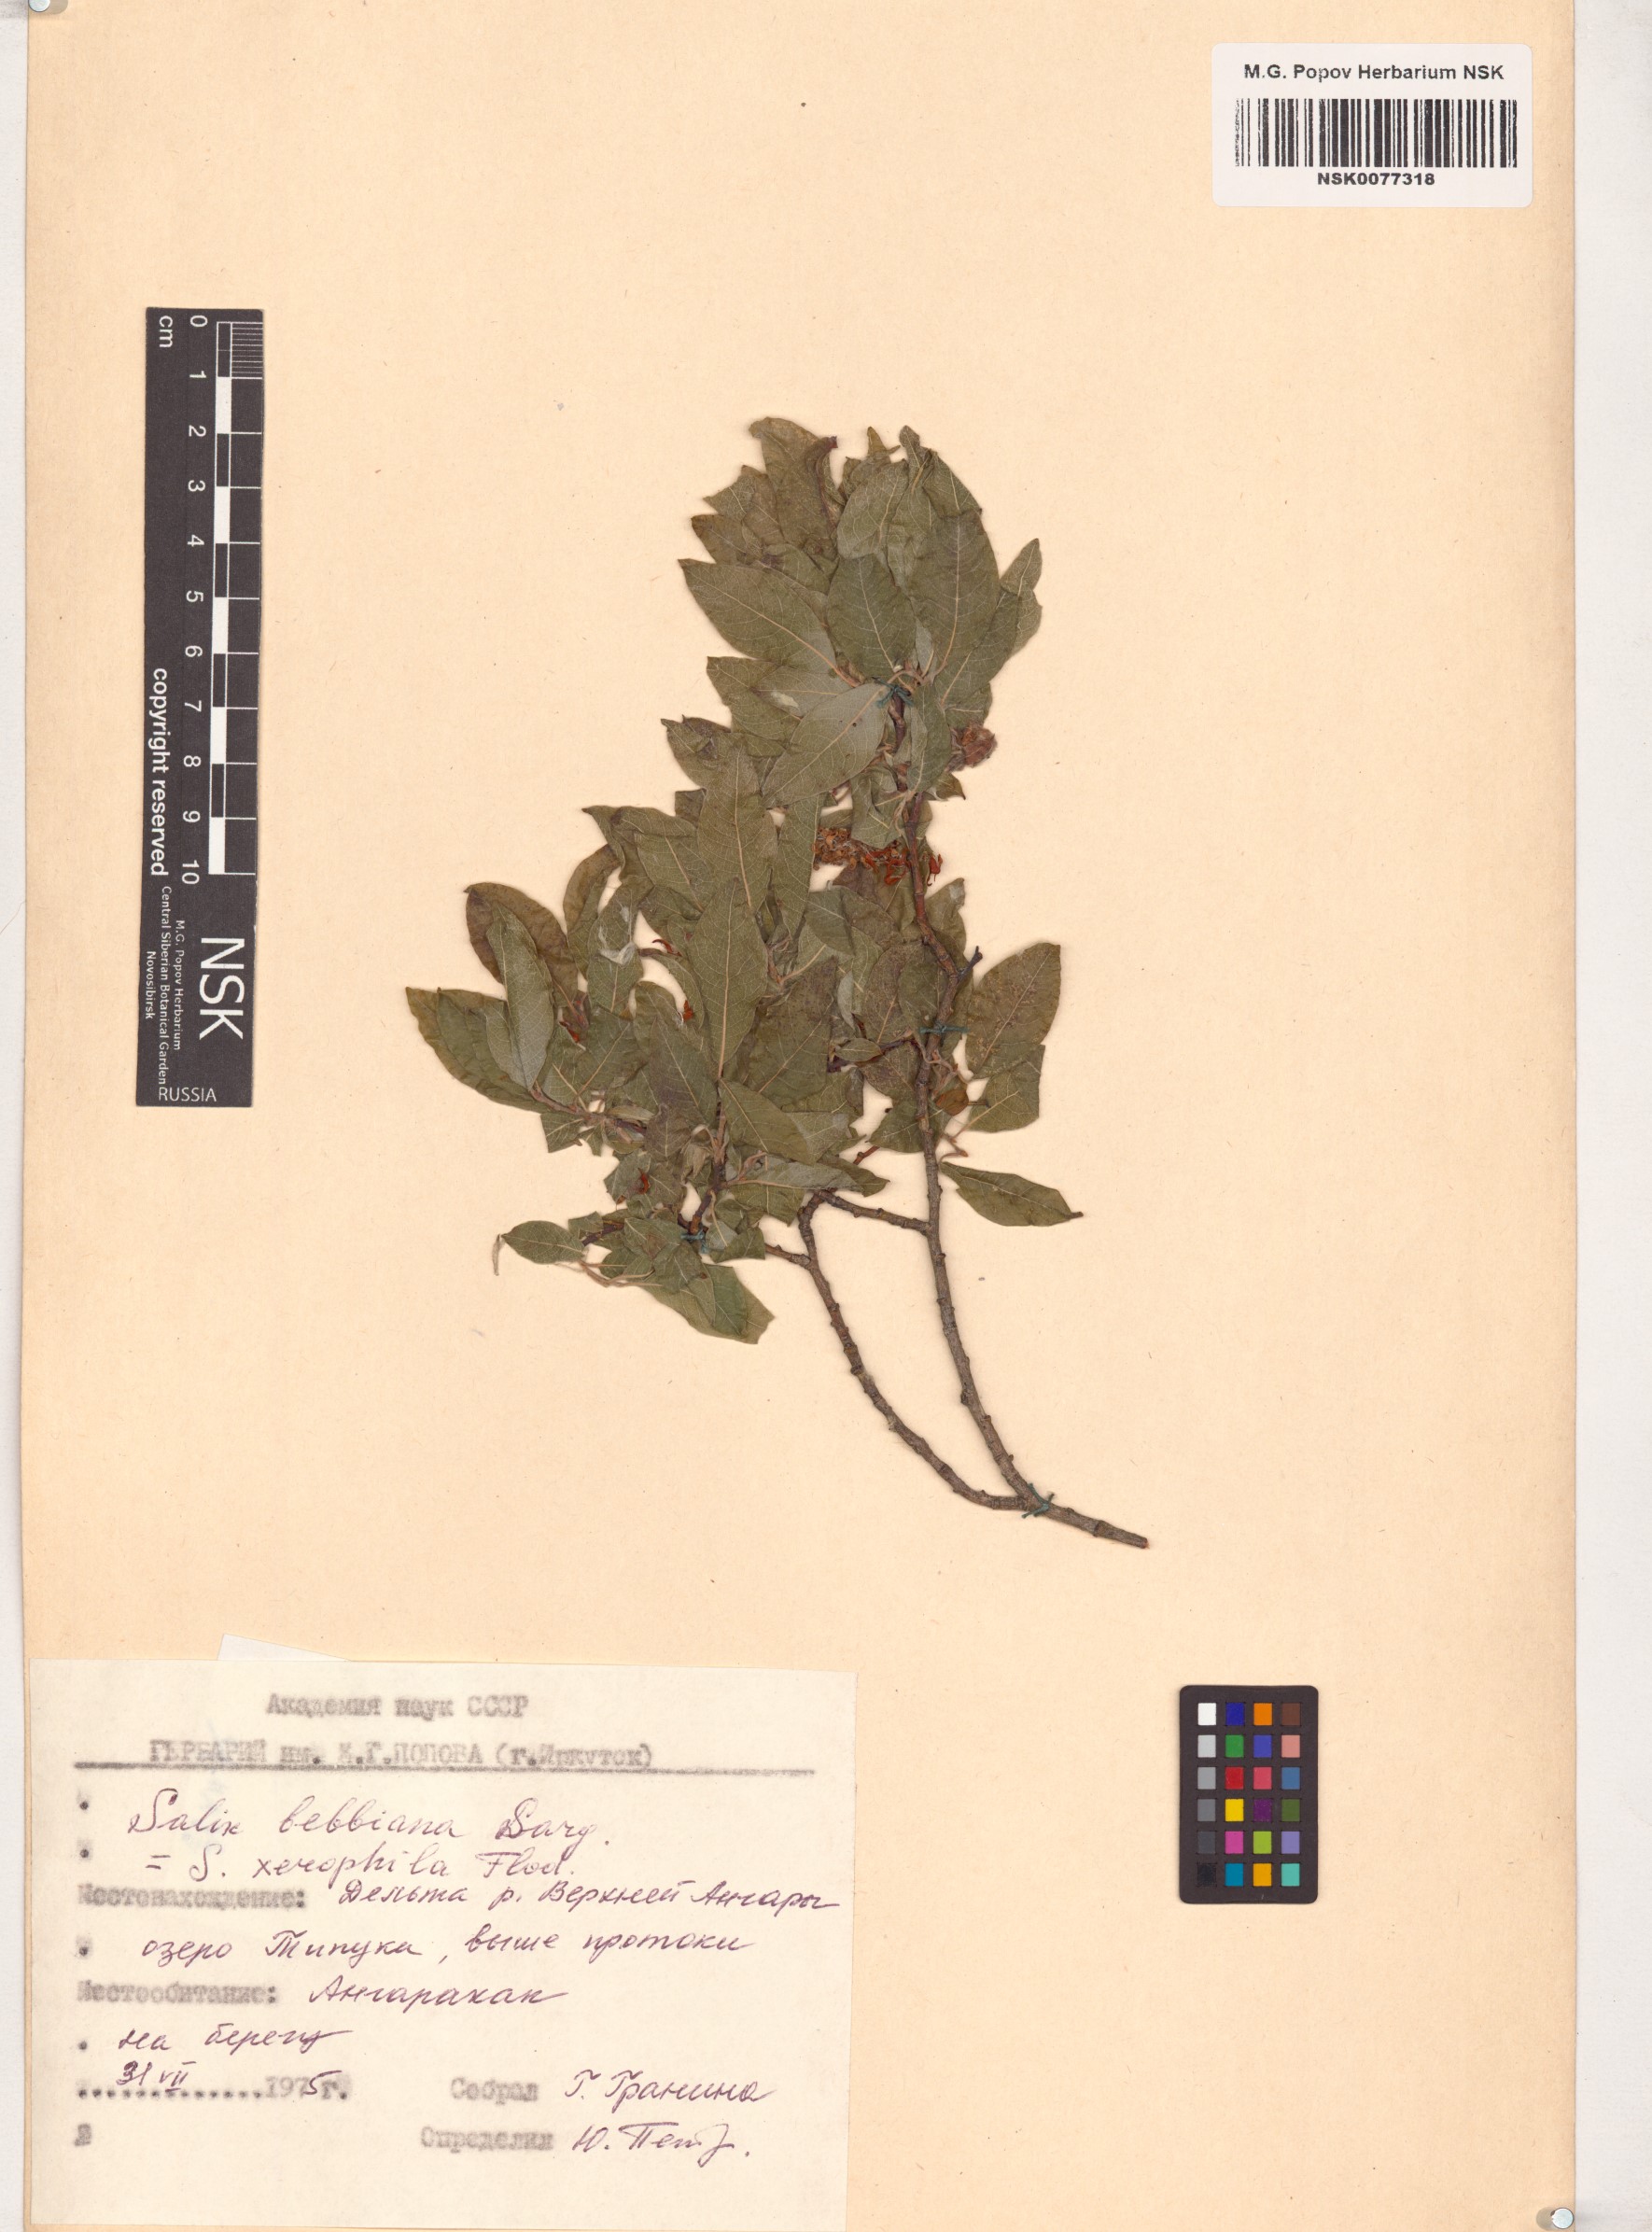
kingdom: Plantae
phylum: Tracheophyta
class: Magnoliopsida
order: Malpighiales
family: Salicaceae
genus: Salix
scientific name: Salix bebbiana
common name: Bebb's willow
